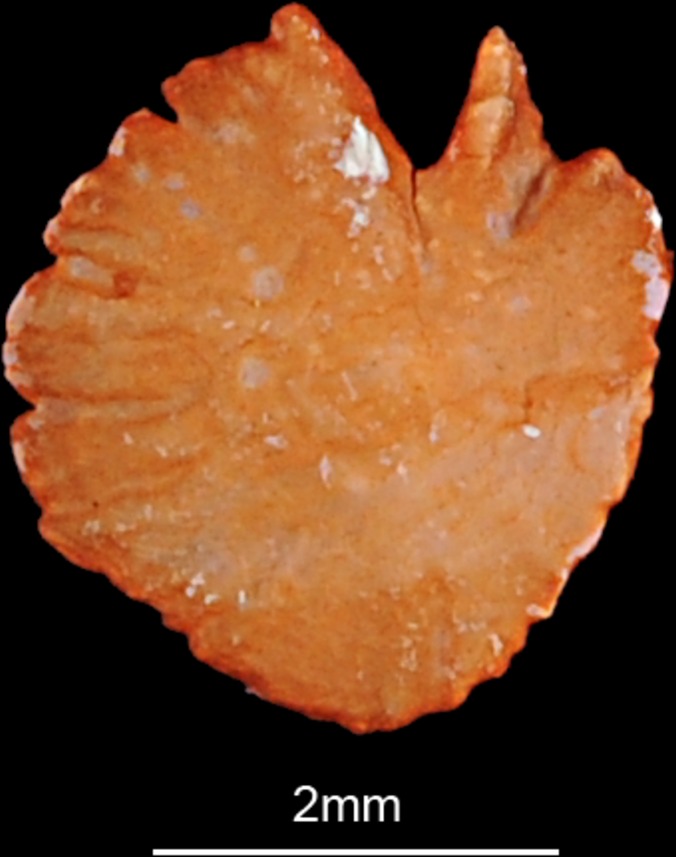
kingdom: Animalia
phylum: Chordata
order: Cypriniformes
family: Cyprinidae
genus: Ballerus
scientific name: Ballerus ballerus
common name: Blue bream
